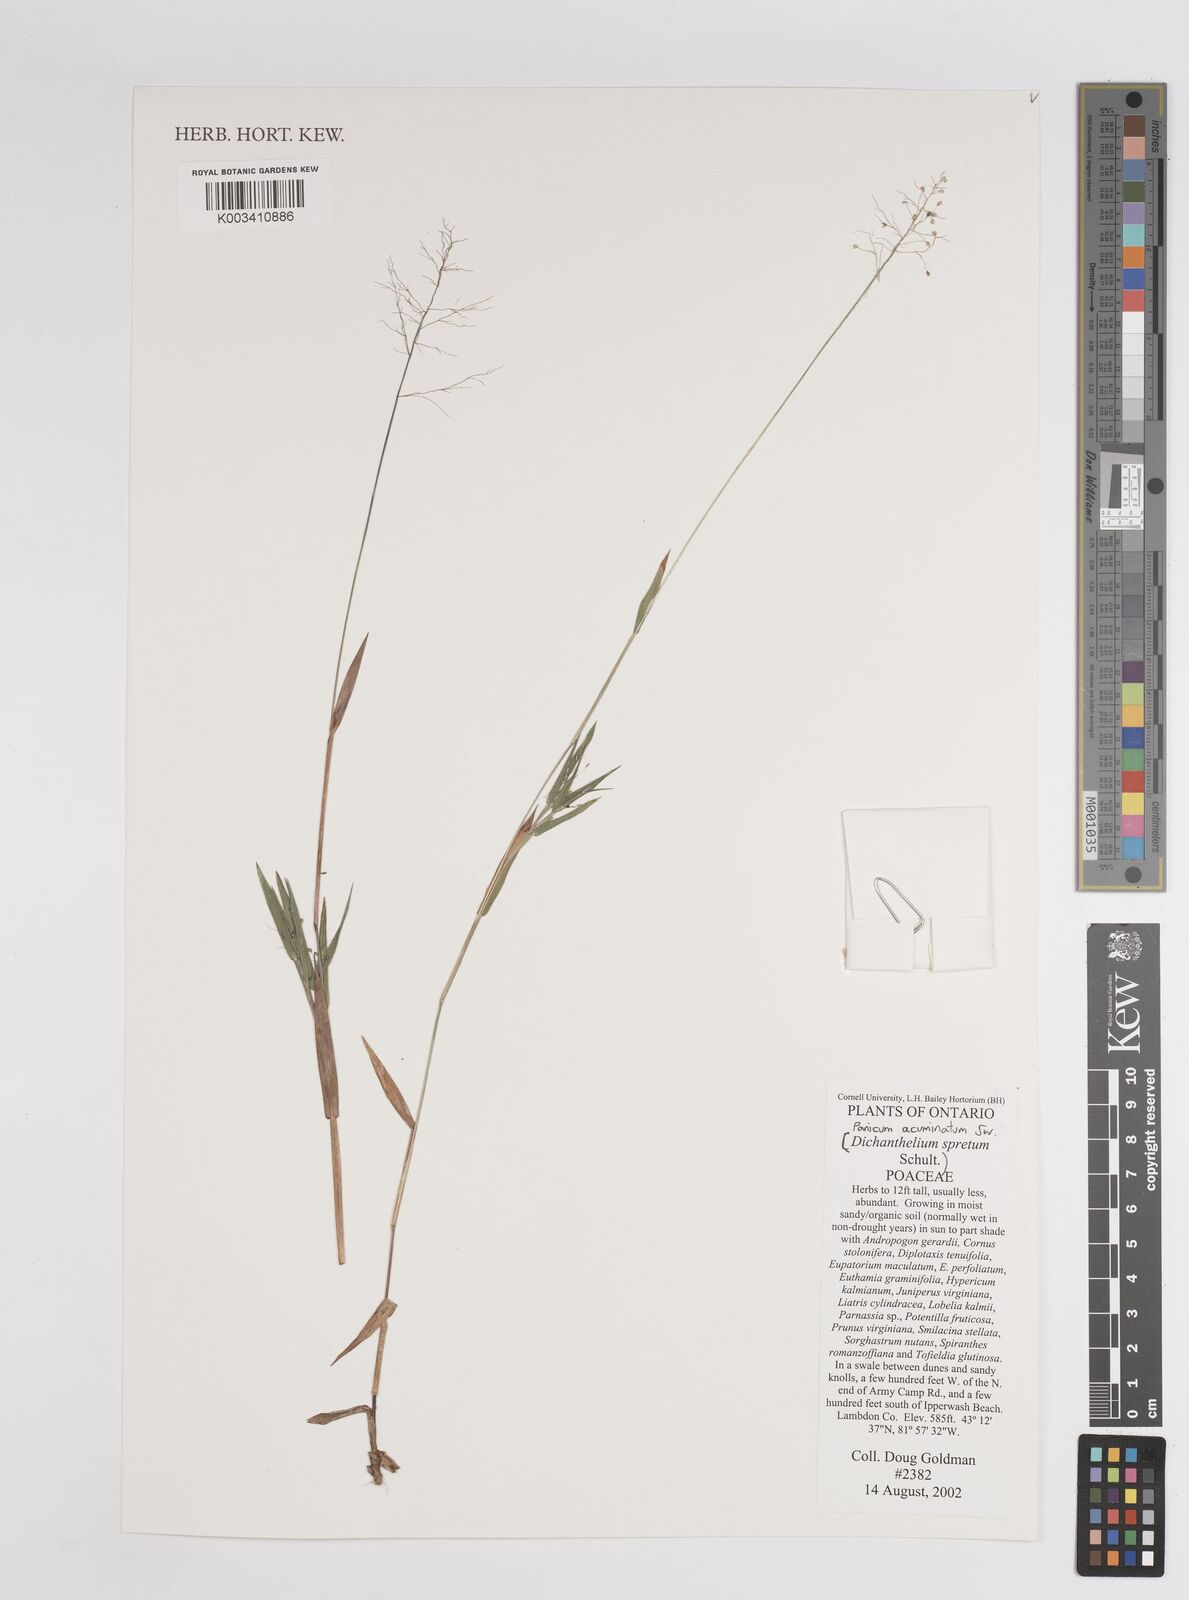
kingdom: Plantae
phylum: Tracheophyta
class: Liliopsida
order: Poales
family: Poaceae
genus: Dichanthelium
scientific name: Dichanthelium villosissimum
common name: White-haired panicgrass
